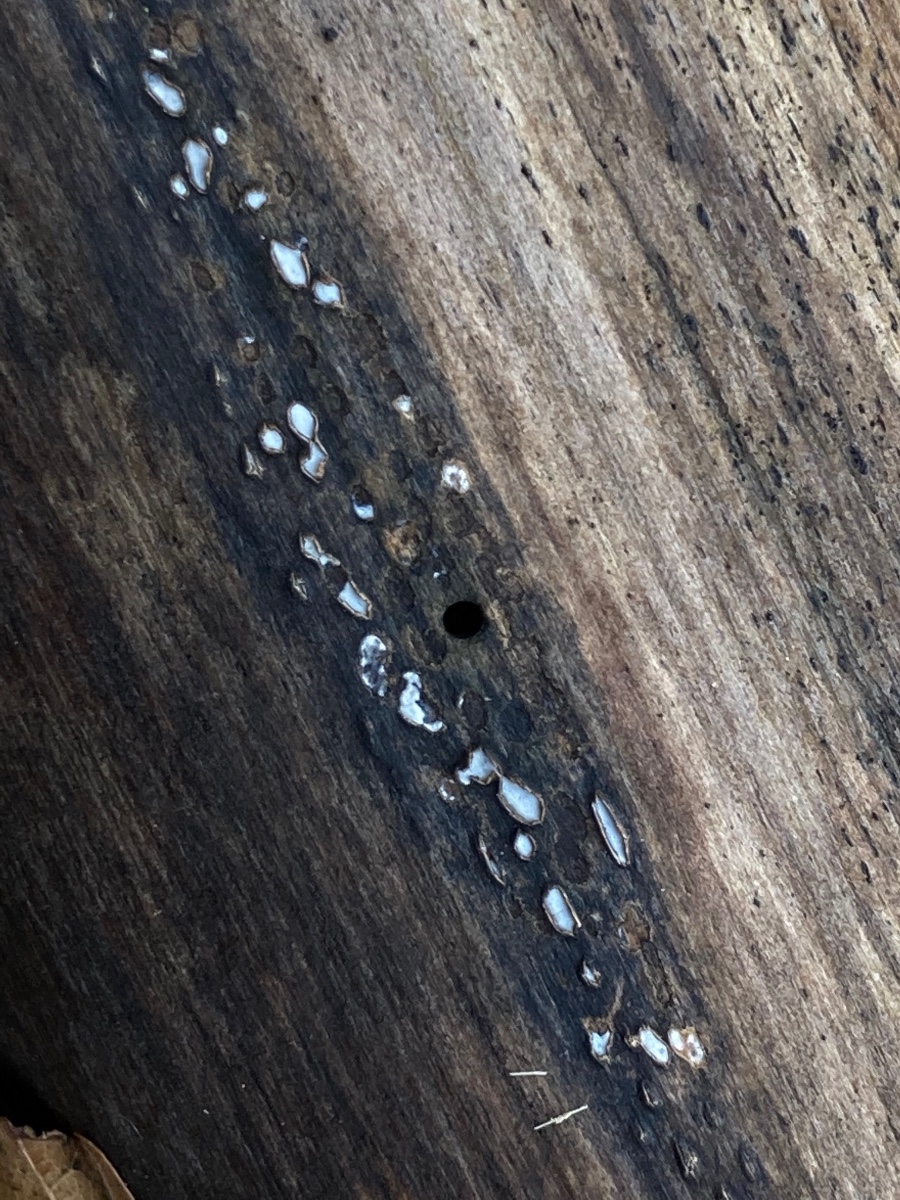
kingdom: Fungi
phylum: Ascomycota
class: Leotiomycetes
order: Chaetomellales
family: Marthamycetaceae
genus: Propolis
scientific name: Propolis farinosa
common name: almindelig vedsprængerskive
